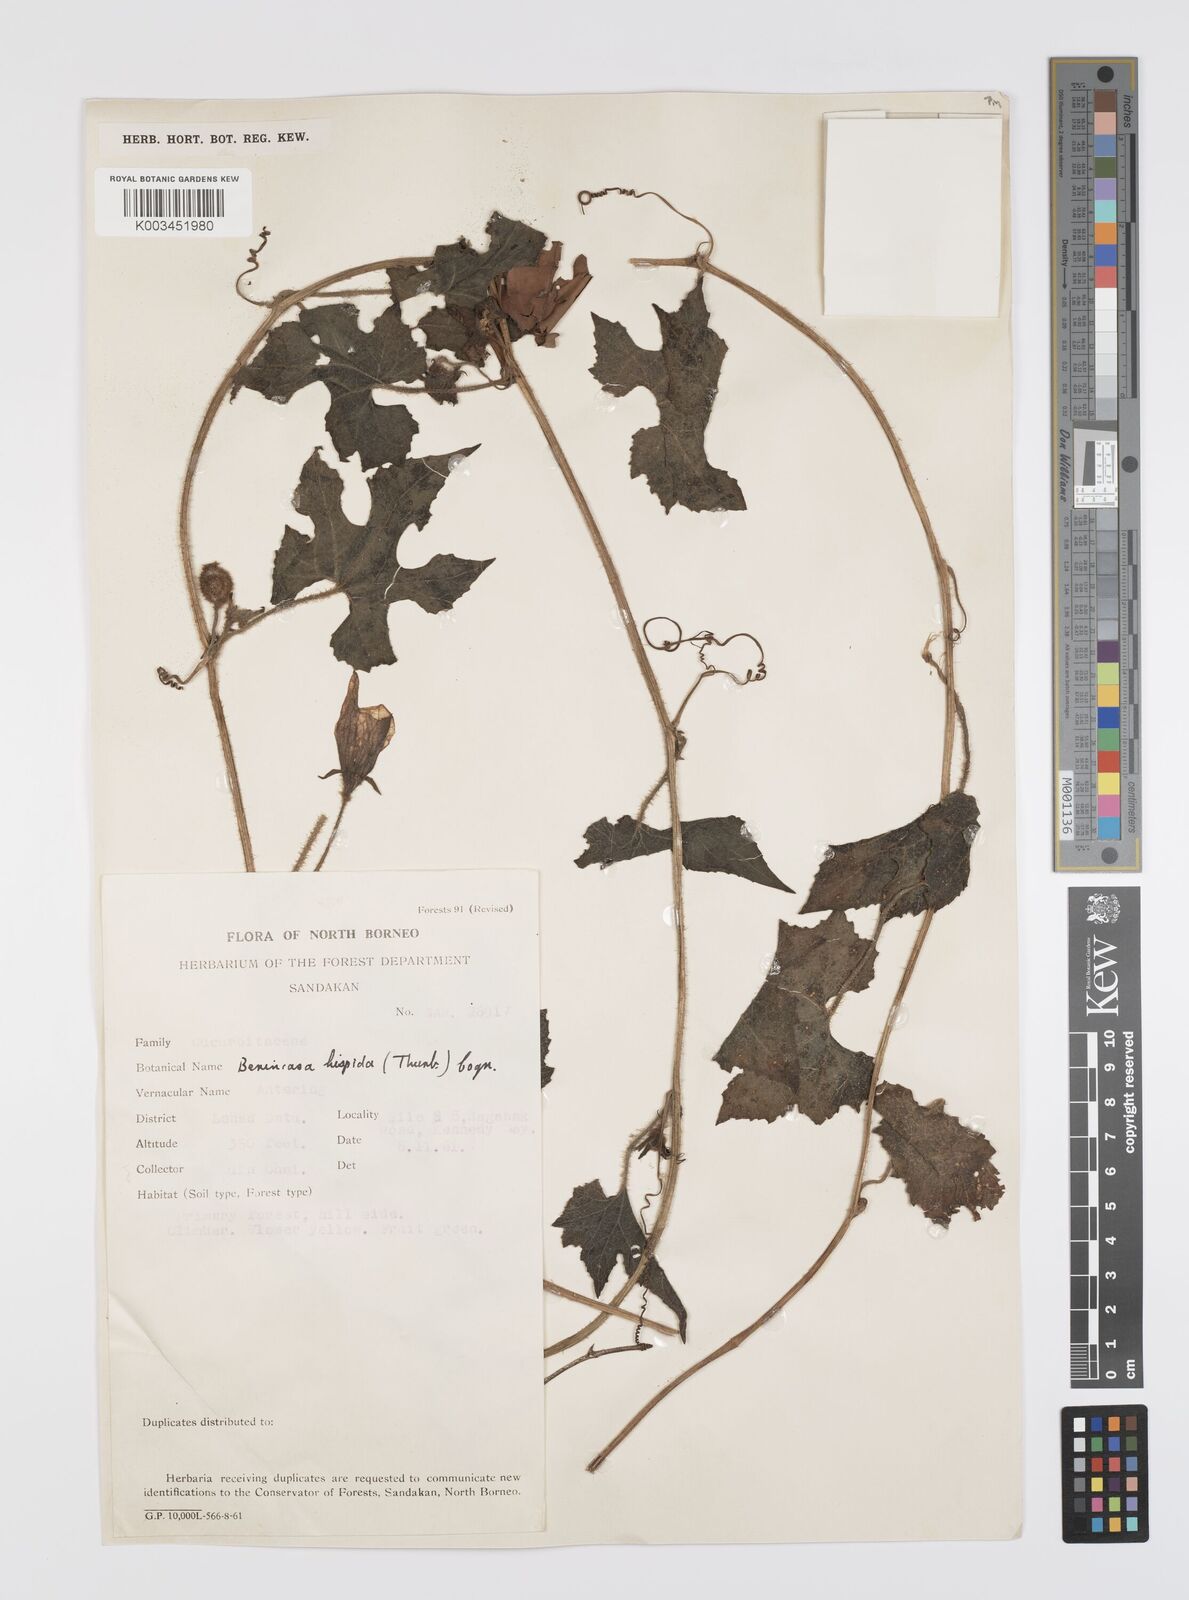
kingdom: Plantae
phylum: Tracheophyta
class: Magnoliopsida
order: Cucurbitales
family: Cucurbitaceae
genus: Benincasa
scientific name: Benincasa hispida
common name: Chinese-watermelon
